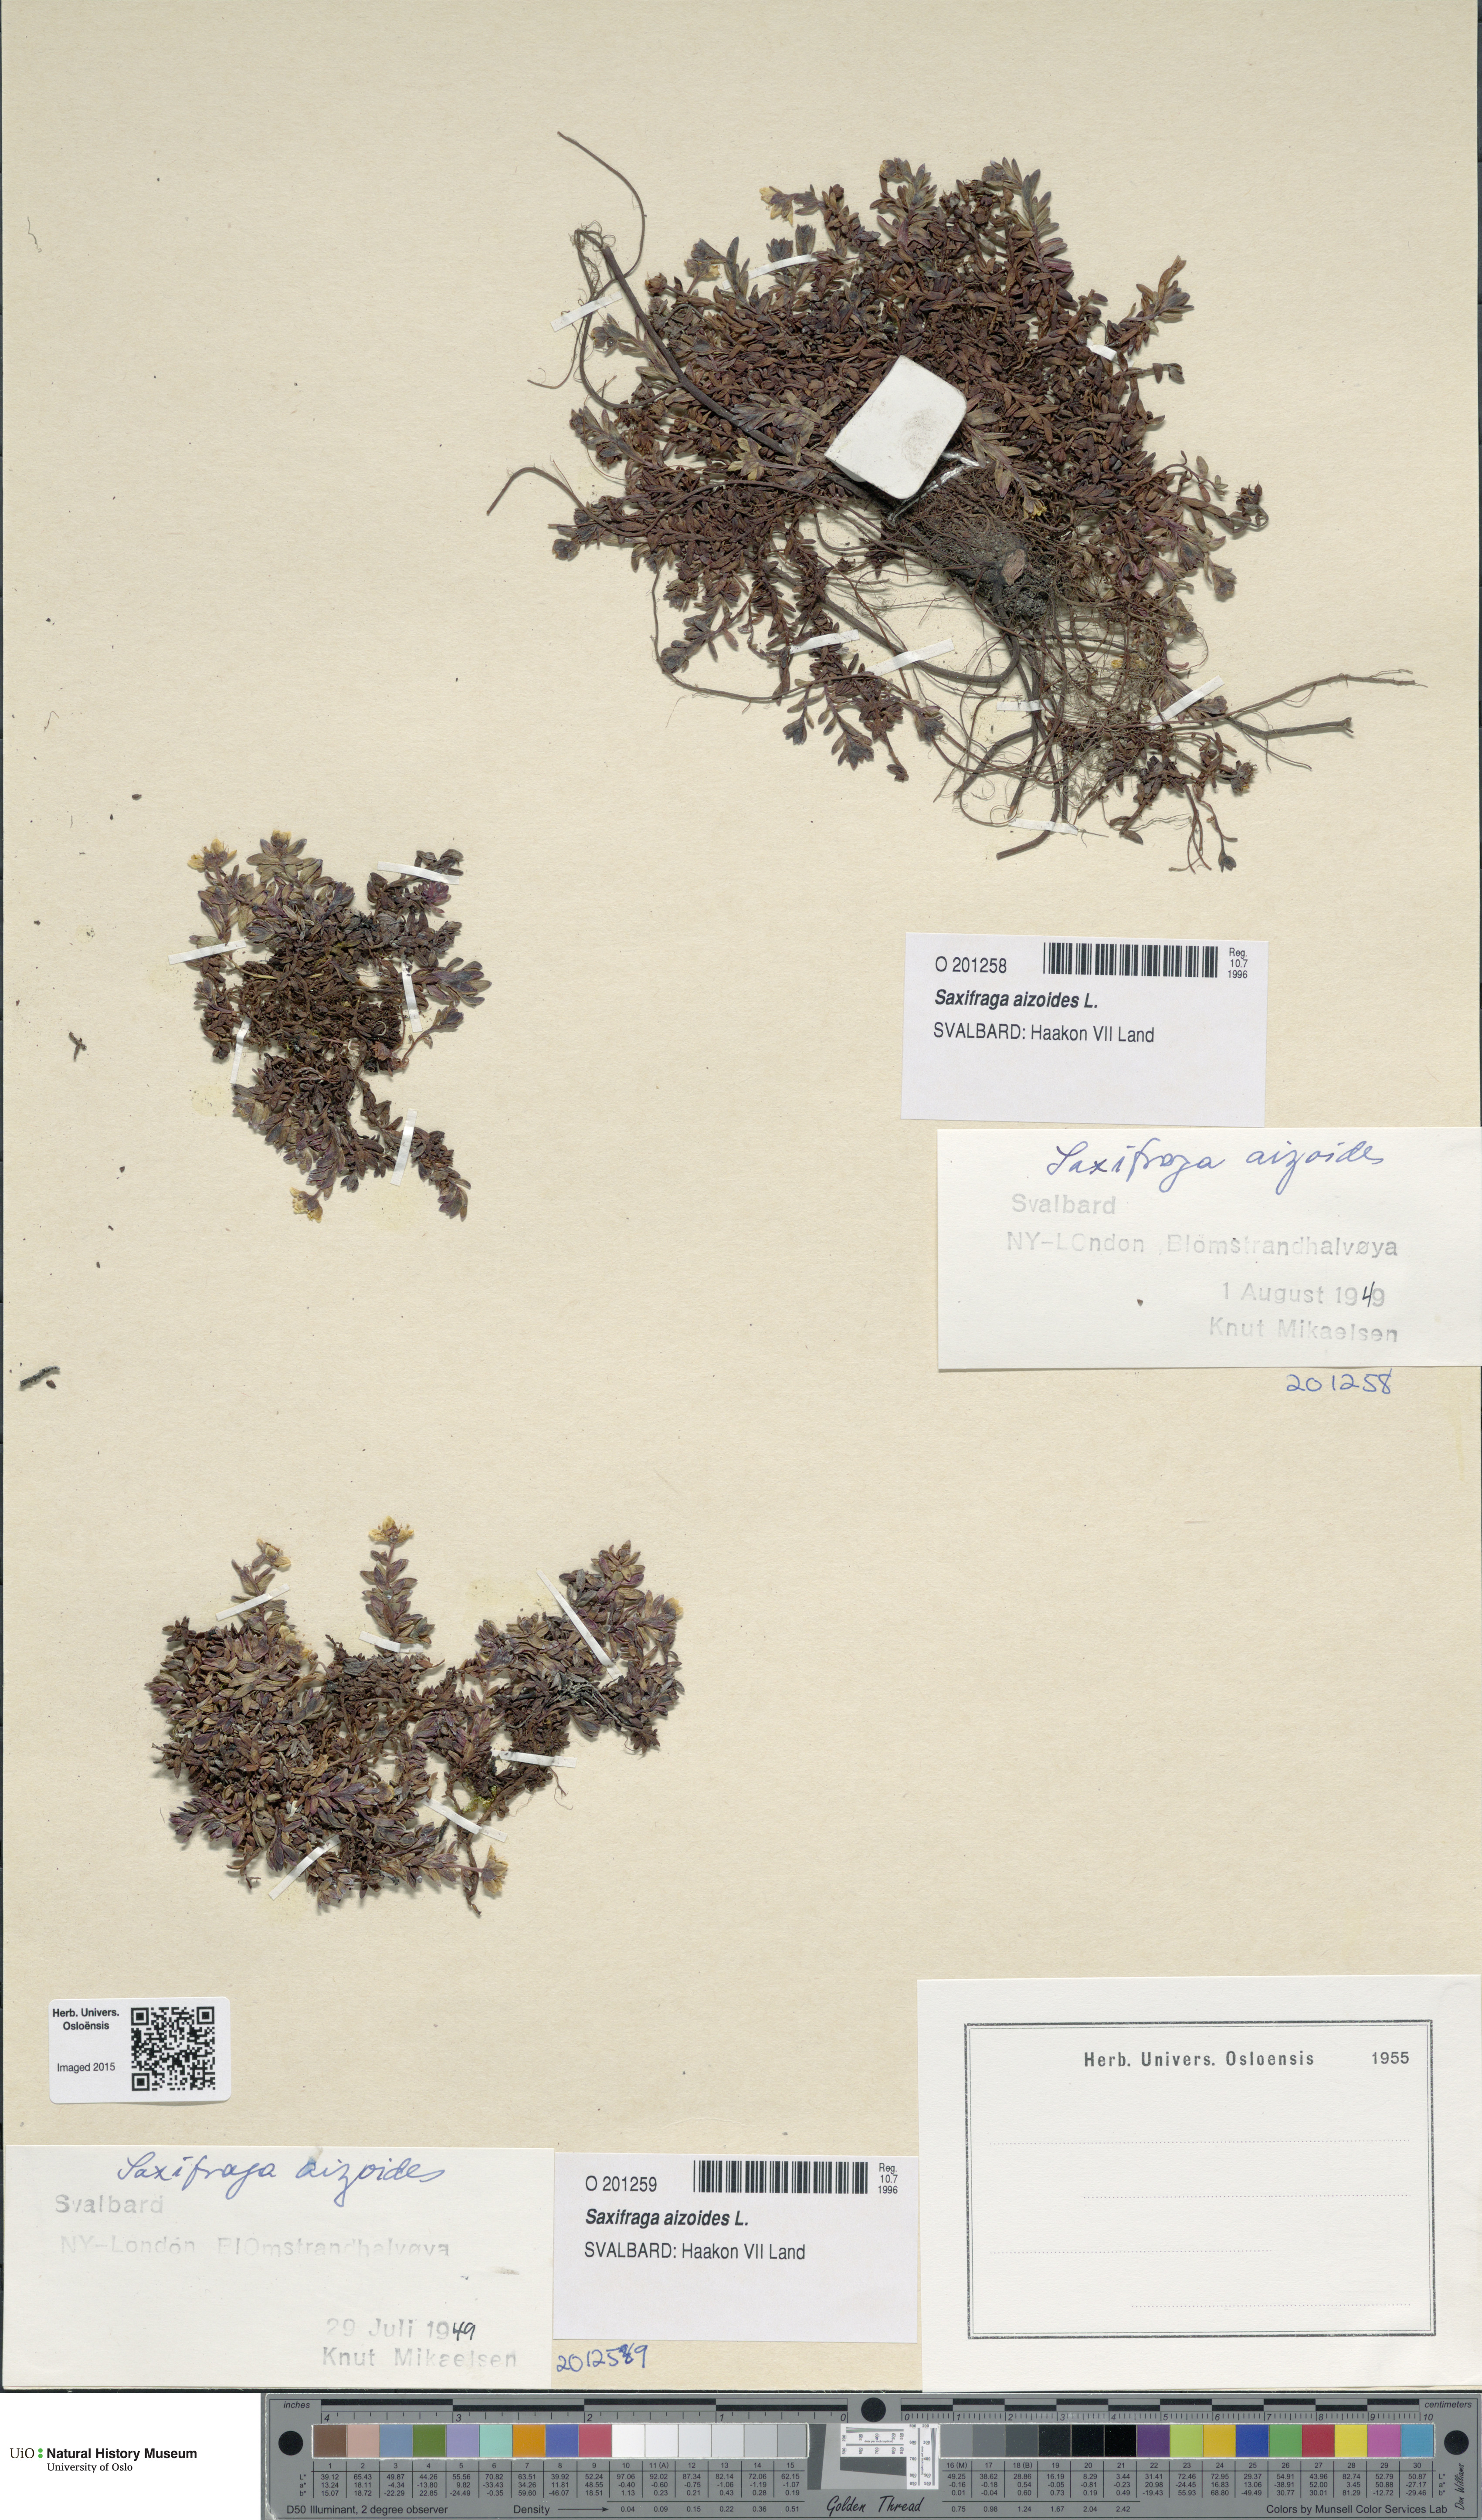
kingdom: Plantae
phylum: Tracheophyta
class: Magnoliopsida
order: Saxifragales
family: Saxifragaceae
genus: Saxifraga
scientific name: Saxifraga aizoides
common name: Yellow mountain saxifrage
